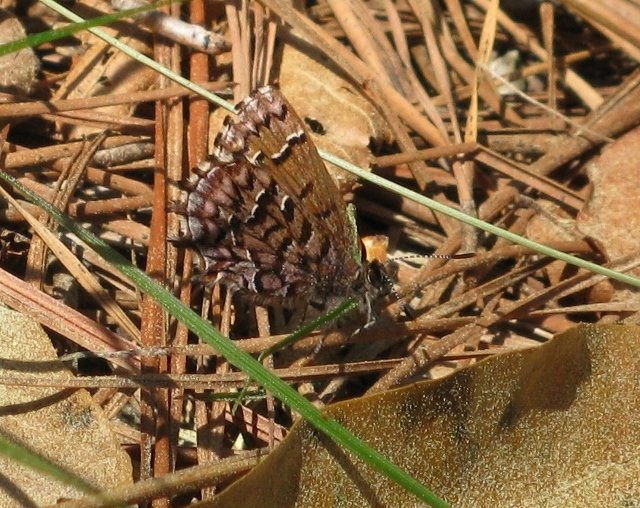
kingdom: Animalia
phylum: Arthropoda
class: Insecta
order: Lepidoptera
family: Lycaenidae
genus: Incisalia
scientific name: Incisalia niphon
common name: Eastern Pine Elfin
